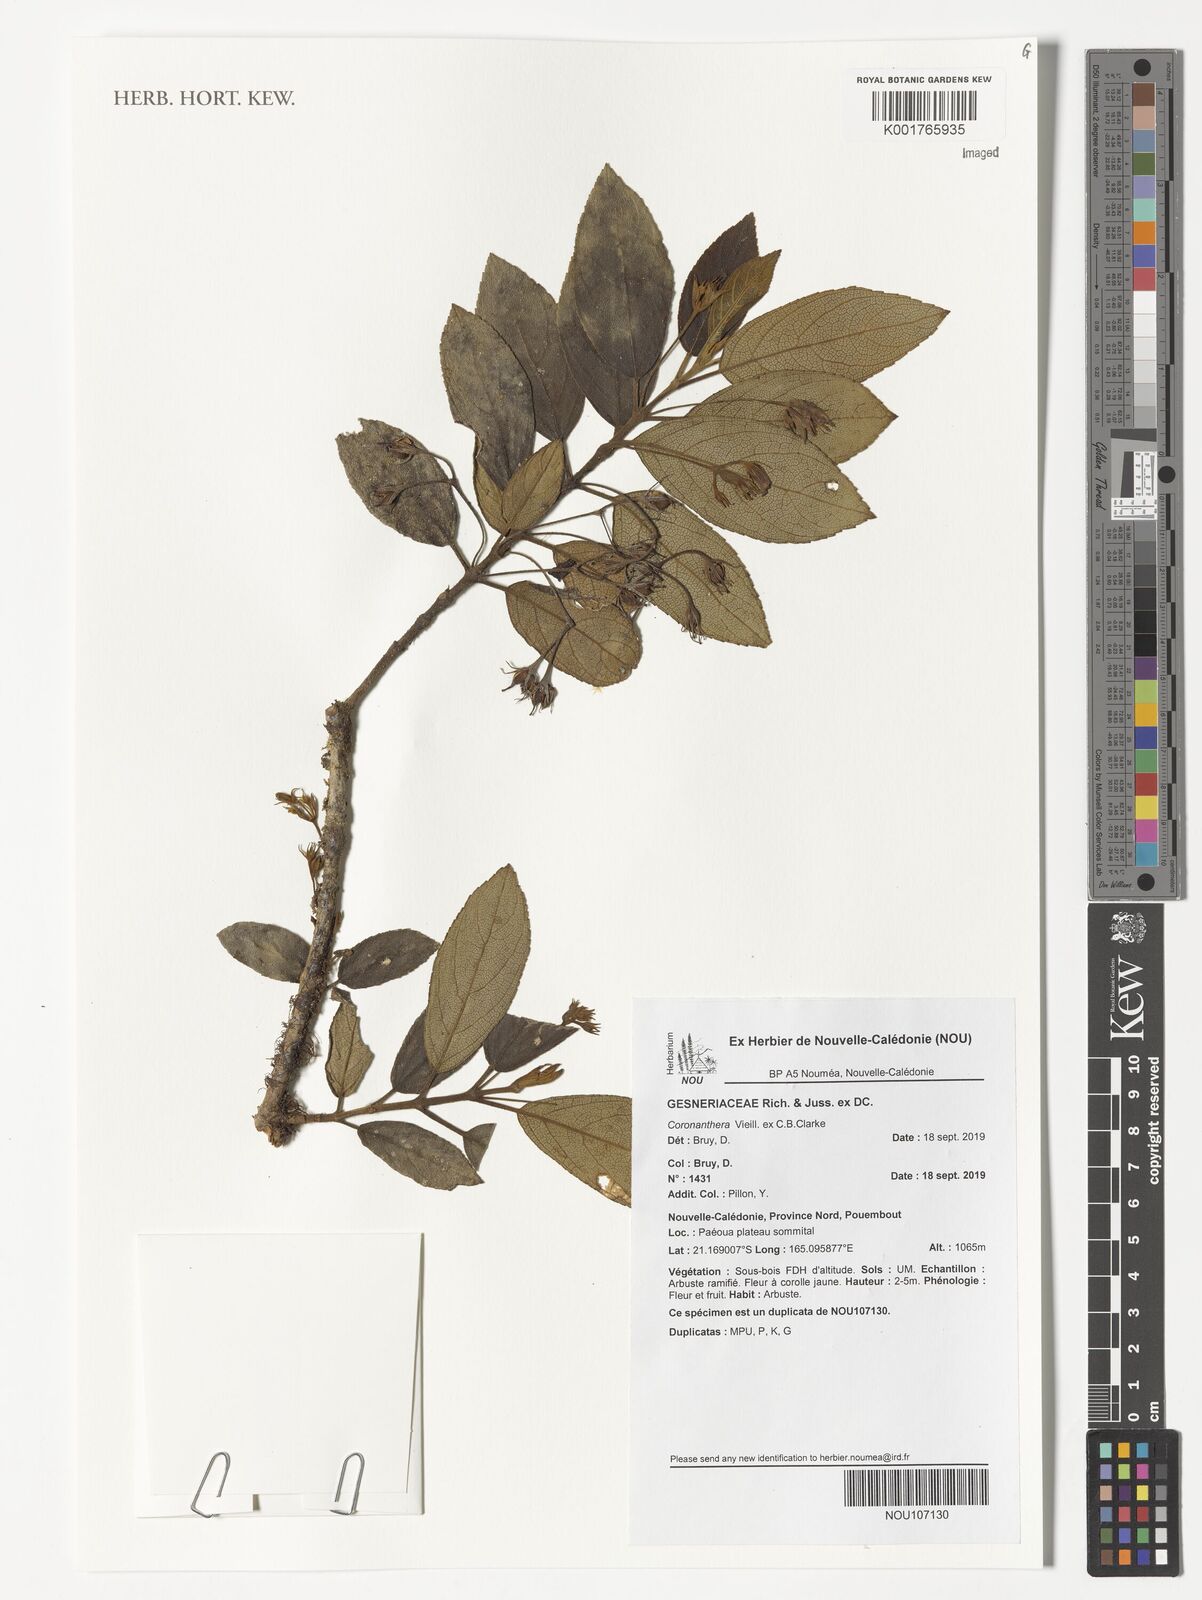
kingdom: Plantae
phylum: Tracheophyta
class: Magnoliopsida
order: Lamiales
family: Gesneriaceae
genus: Coronanthera
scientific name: Coronanthera
